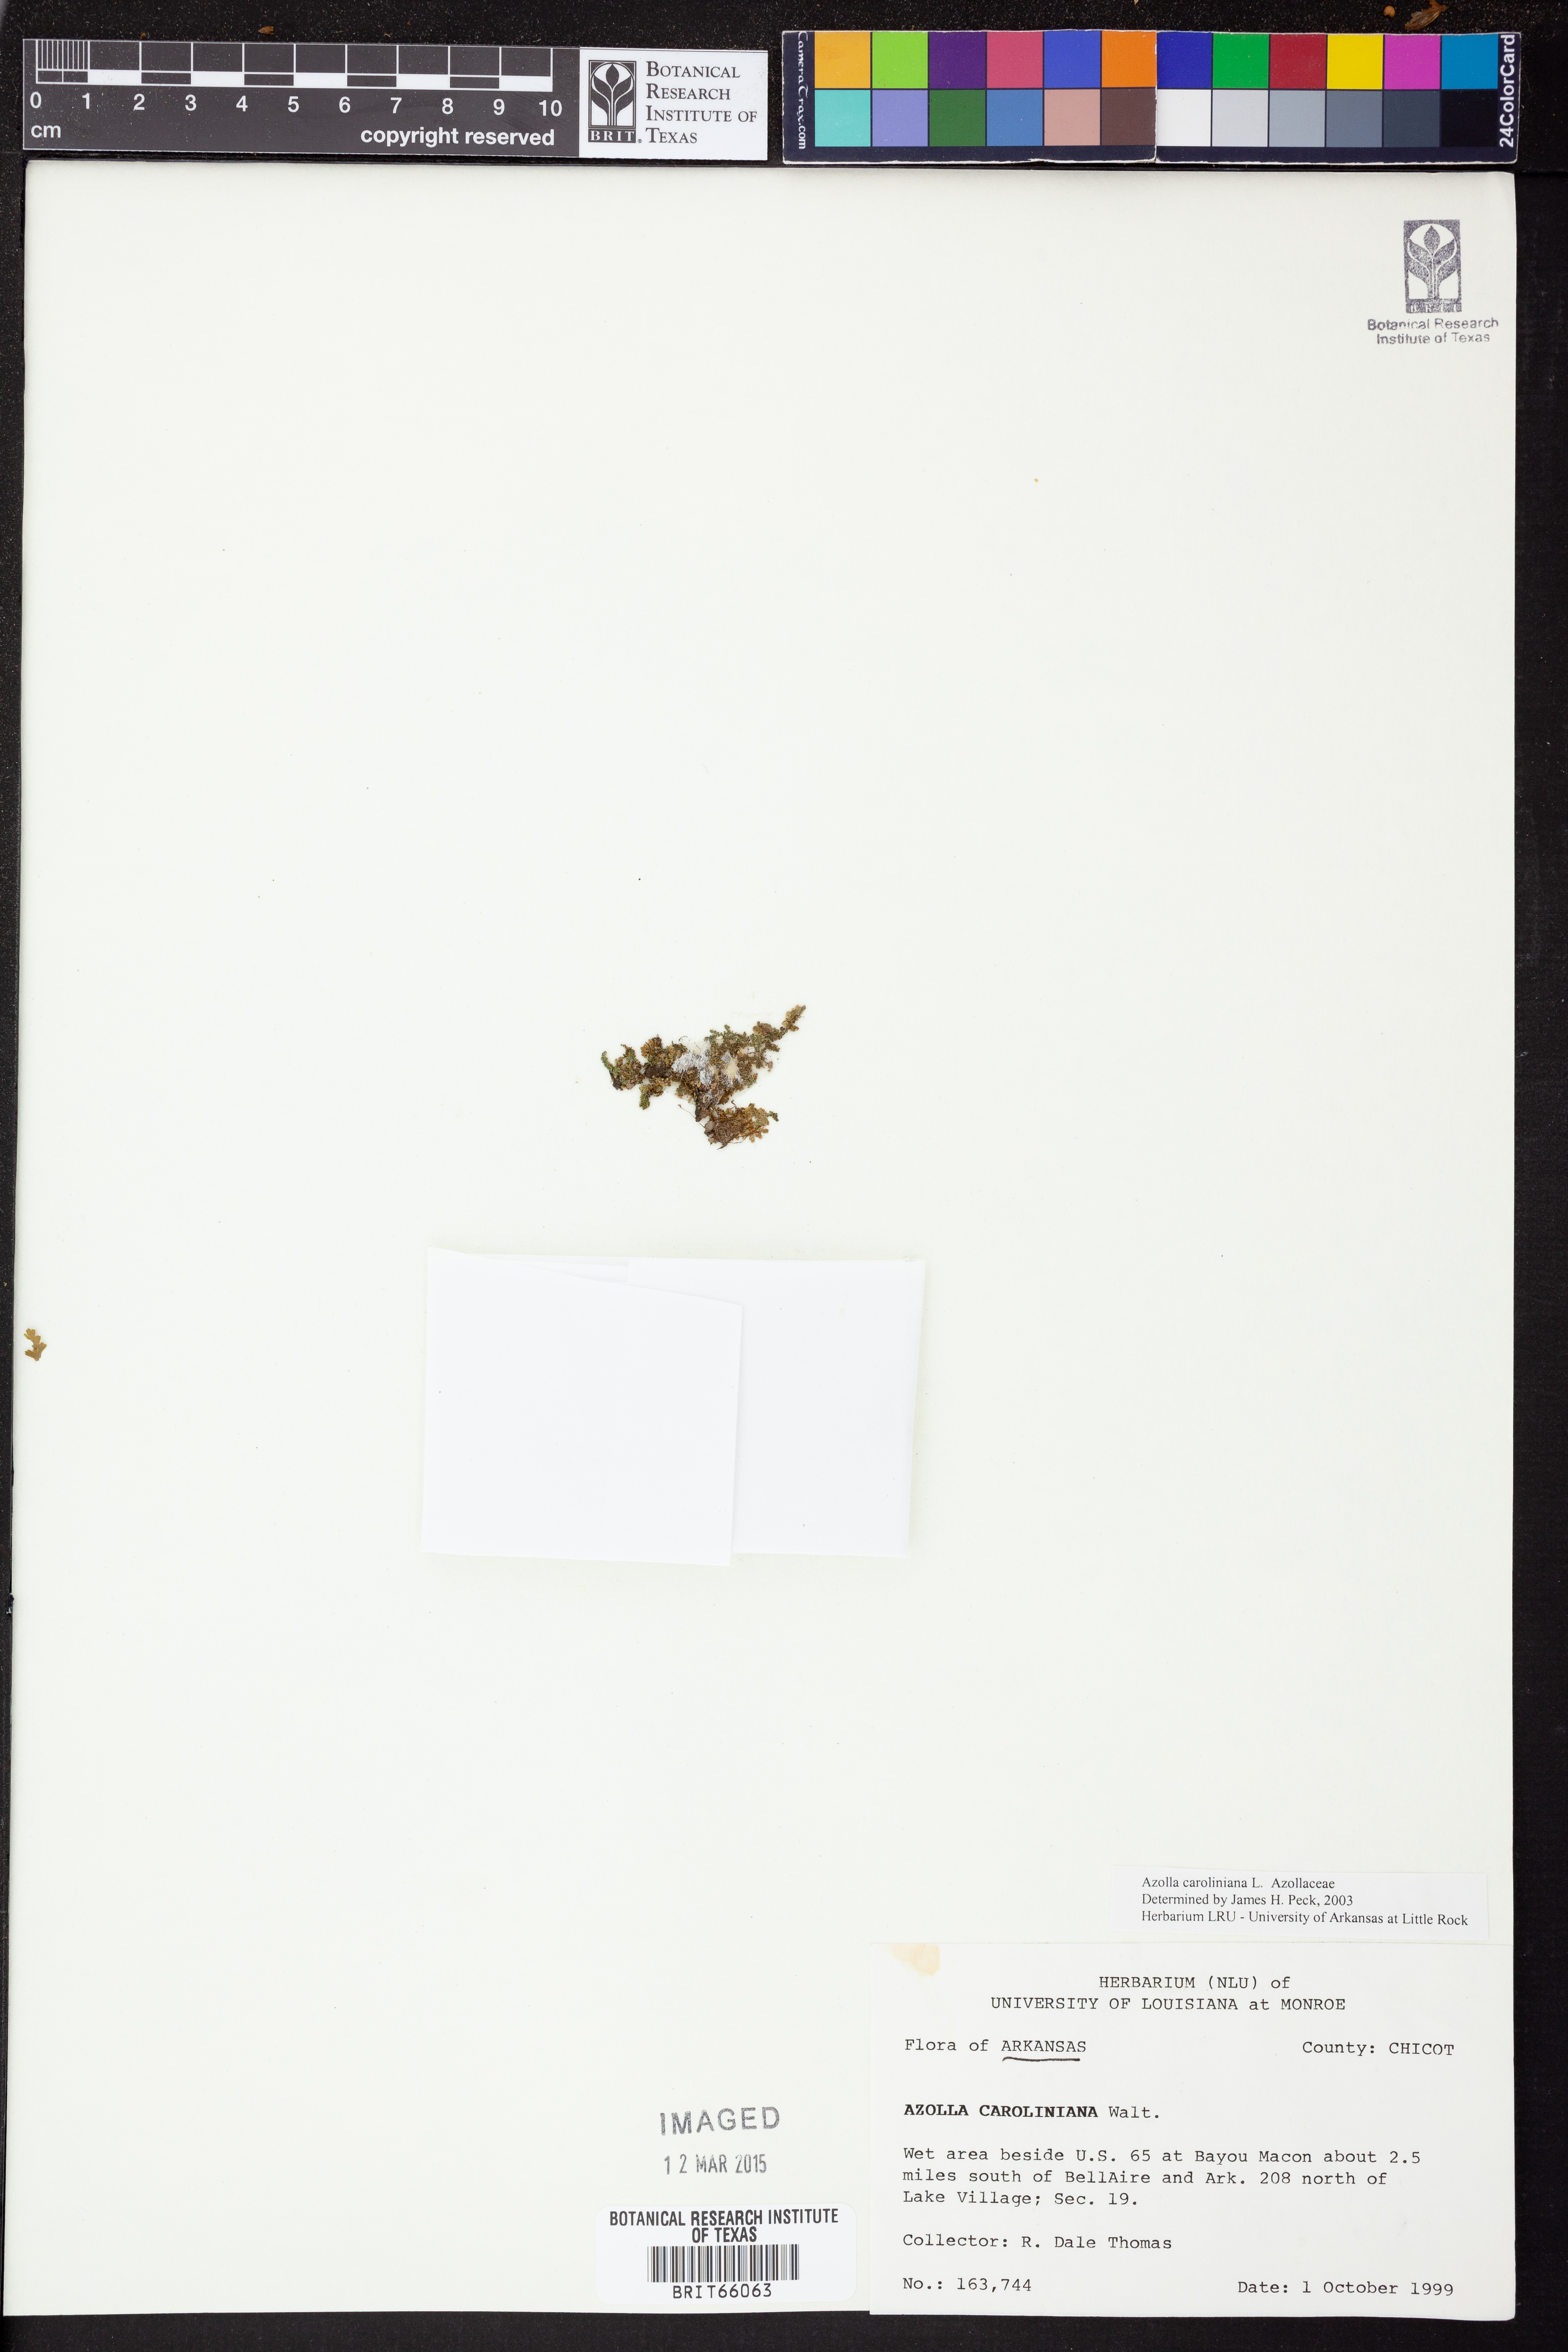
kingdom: Plantae
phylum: Tracheophyta
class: Polypodiopsida
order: Salviniales
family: Salviniaceae
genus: Azolla
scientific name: Azolla caroliniana
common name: Carolina mosquitofern
